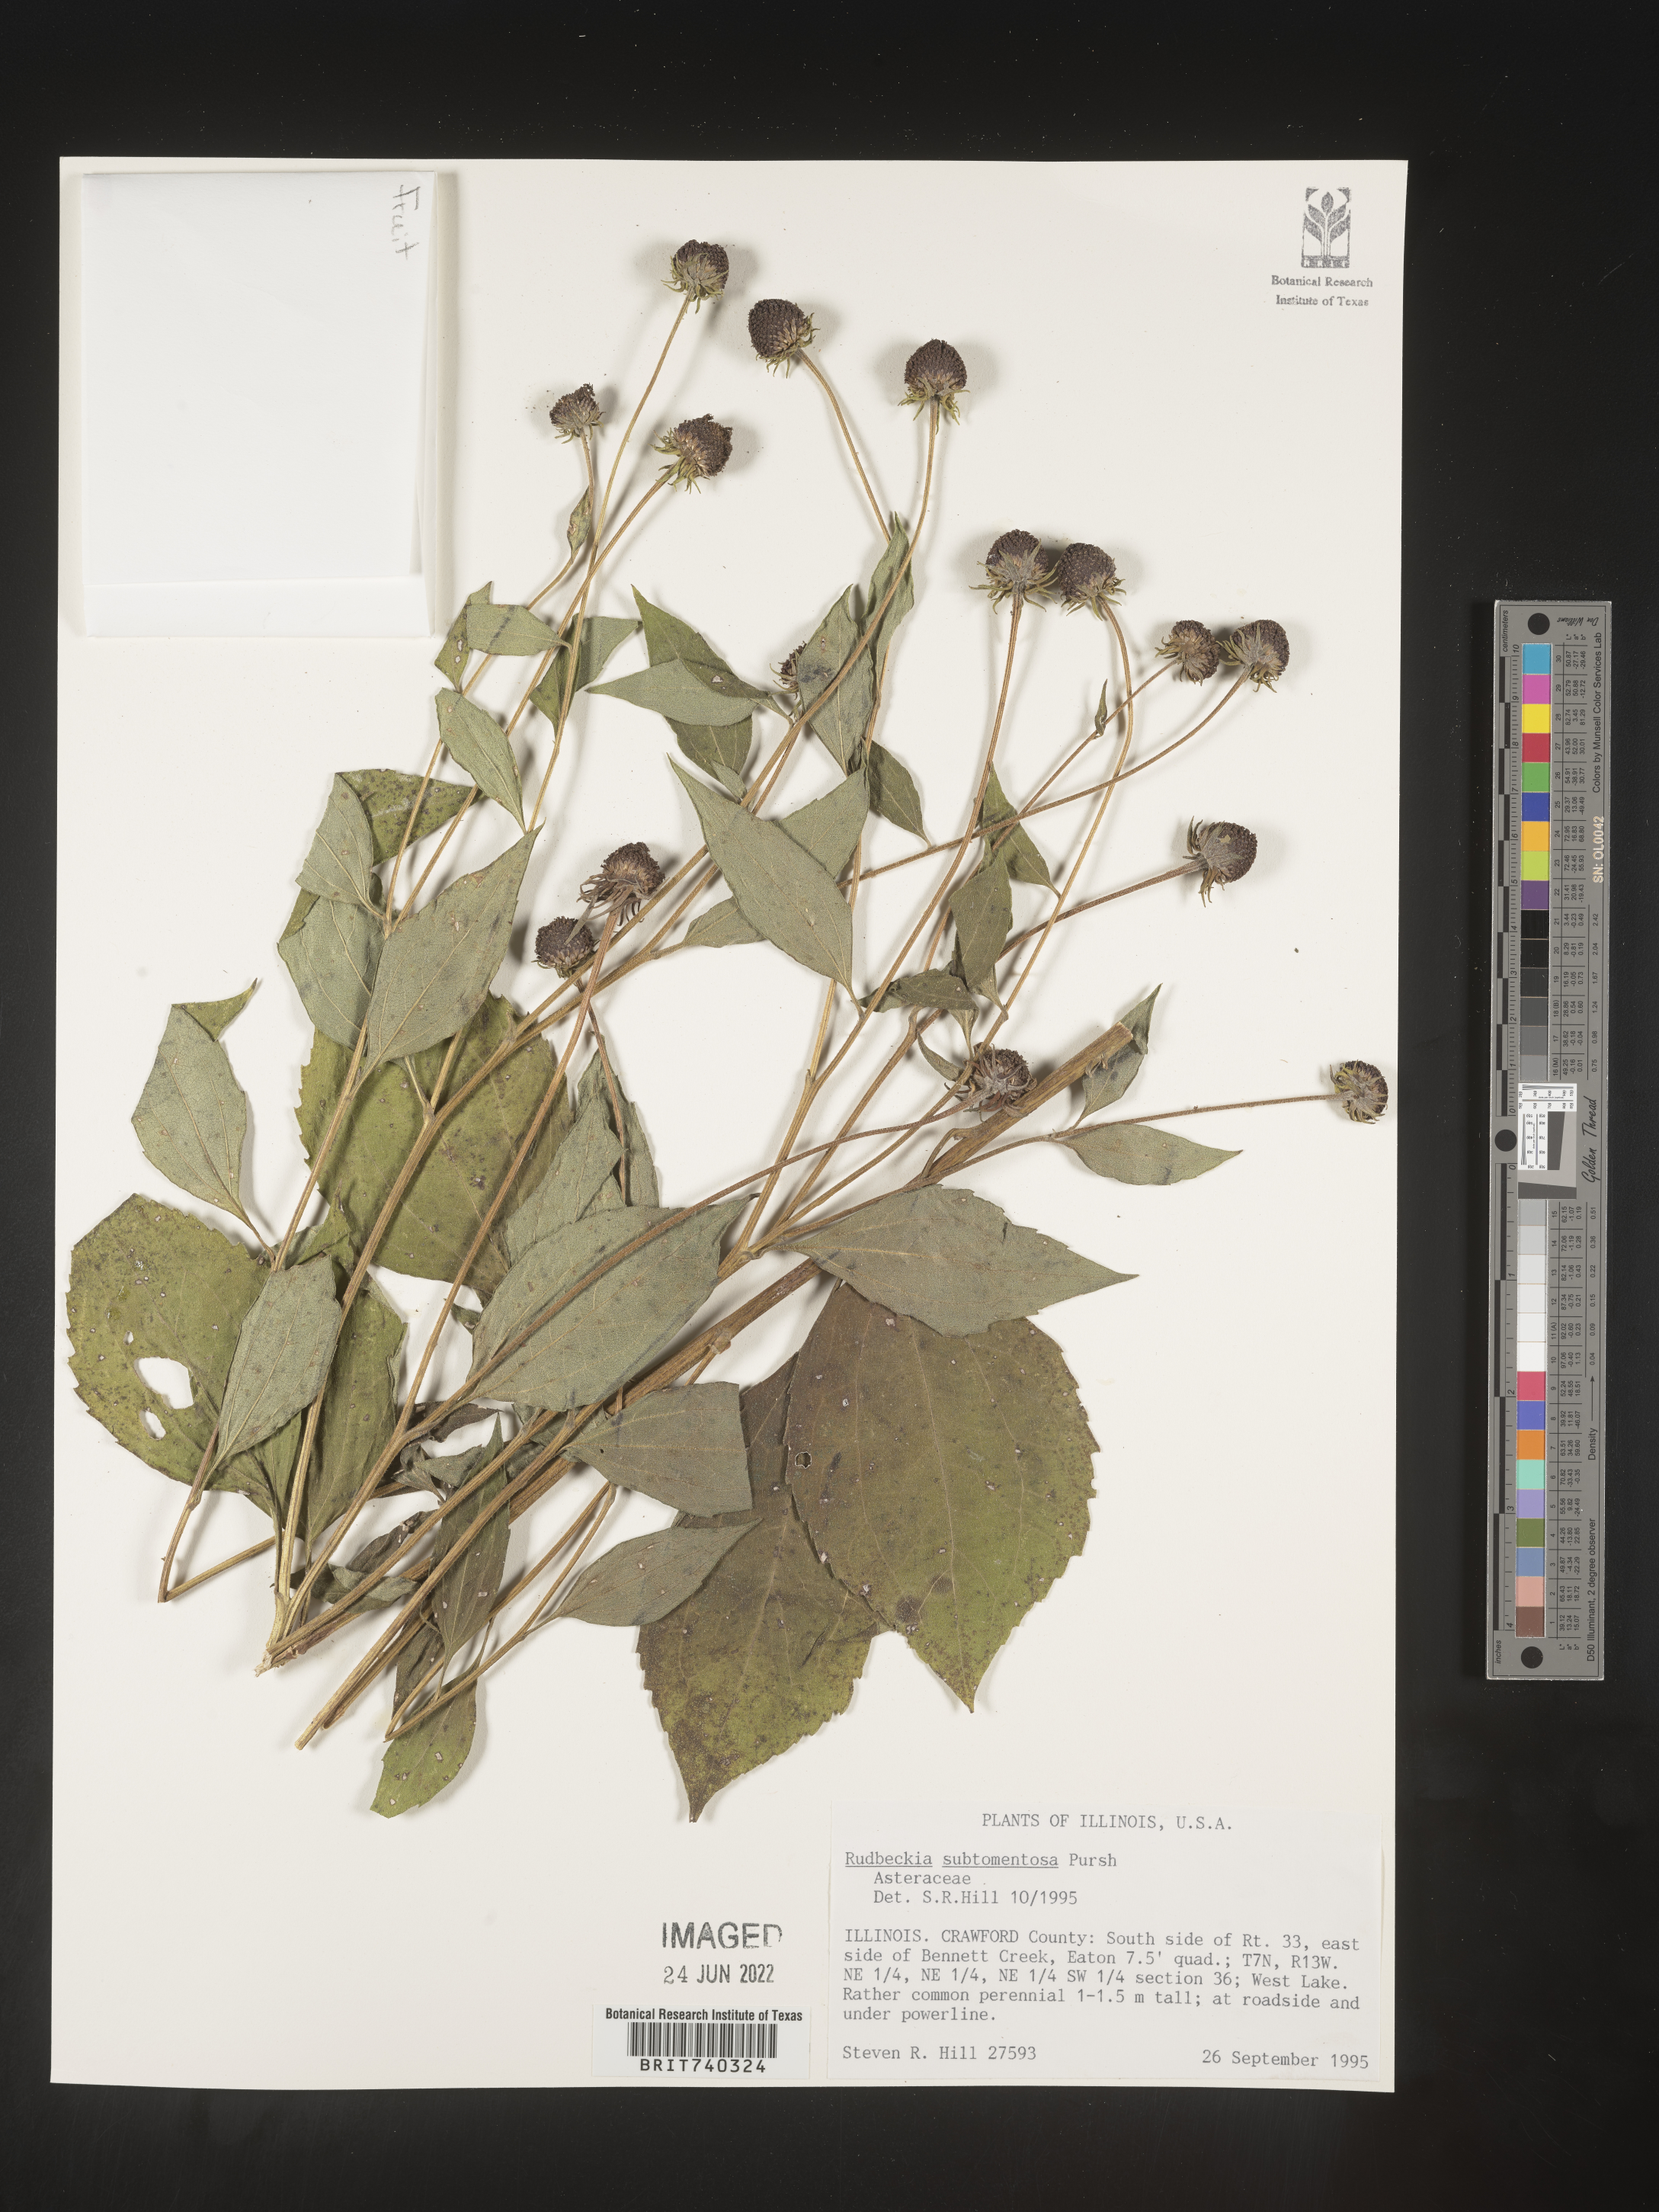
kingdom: Plantae
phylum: Tracheophyta
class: Magnoliopsida
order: Asterales
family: Asteraceae
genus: Rudbeckia
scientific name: Rudbeckia subtomentosa
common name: Sweet coneflower
